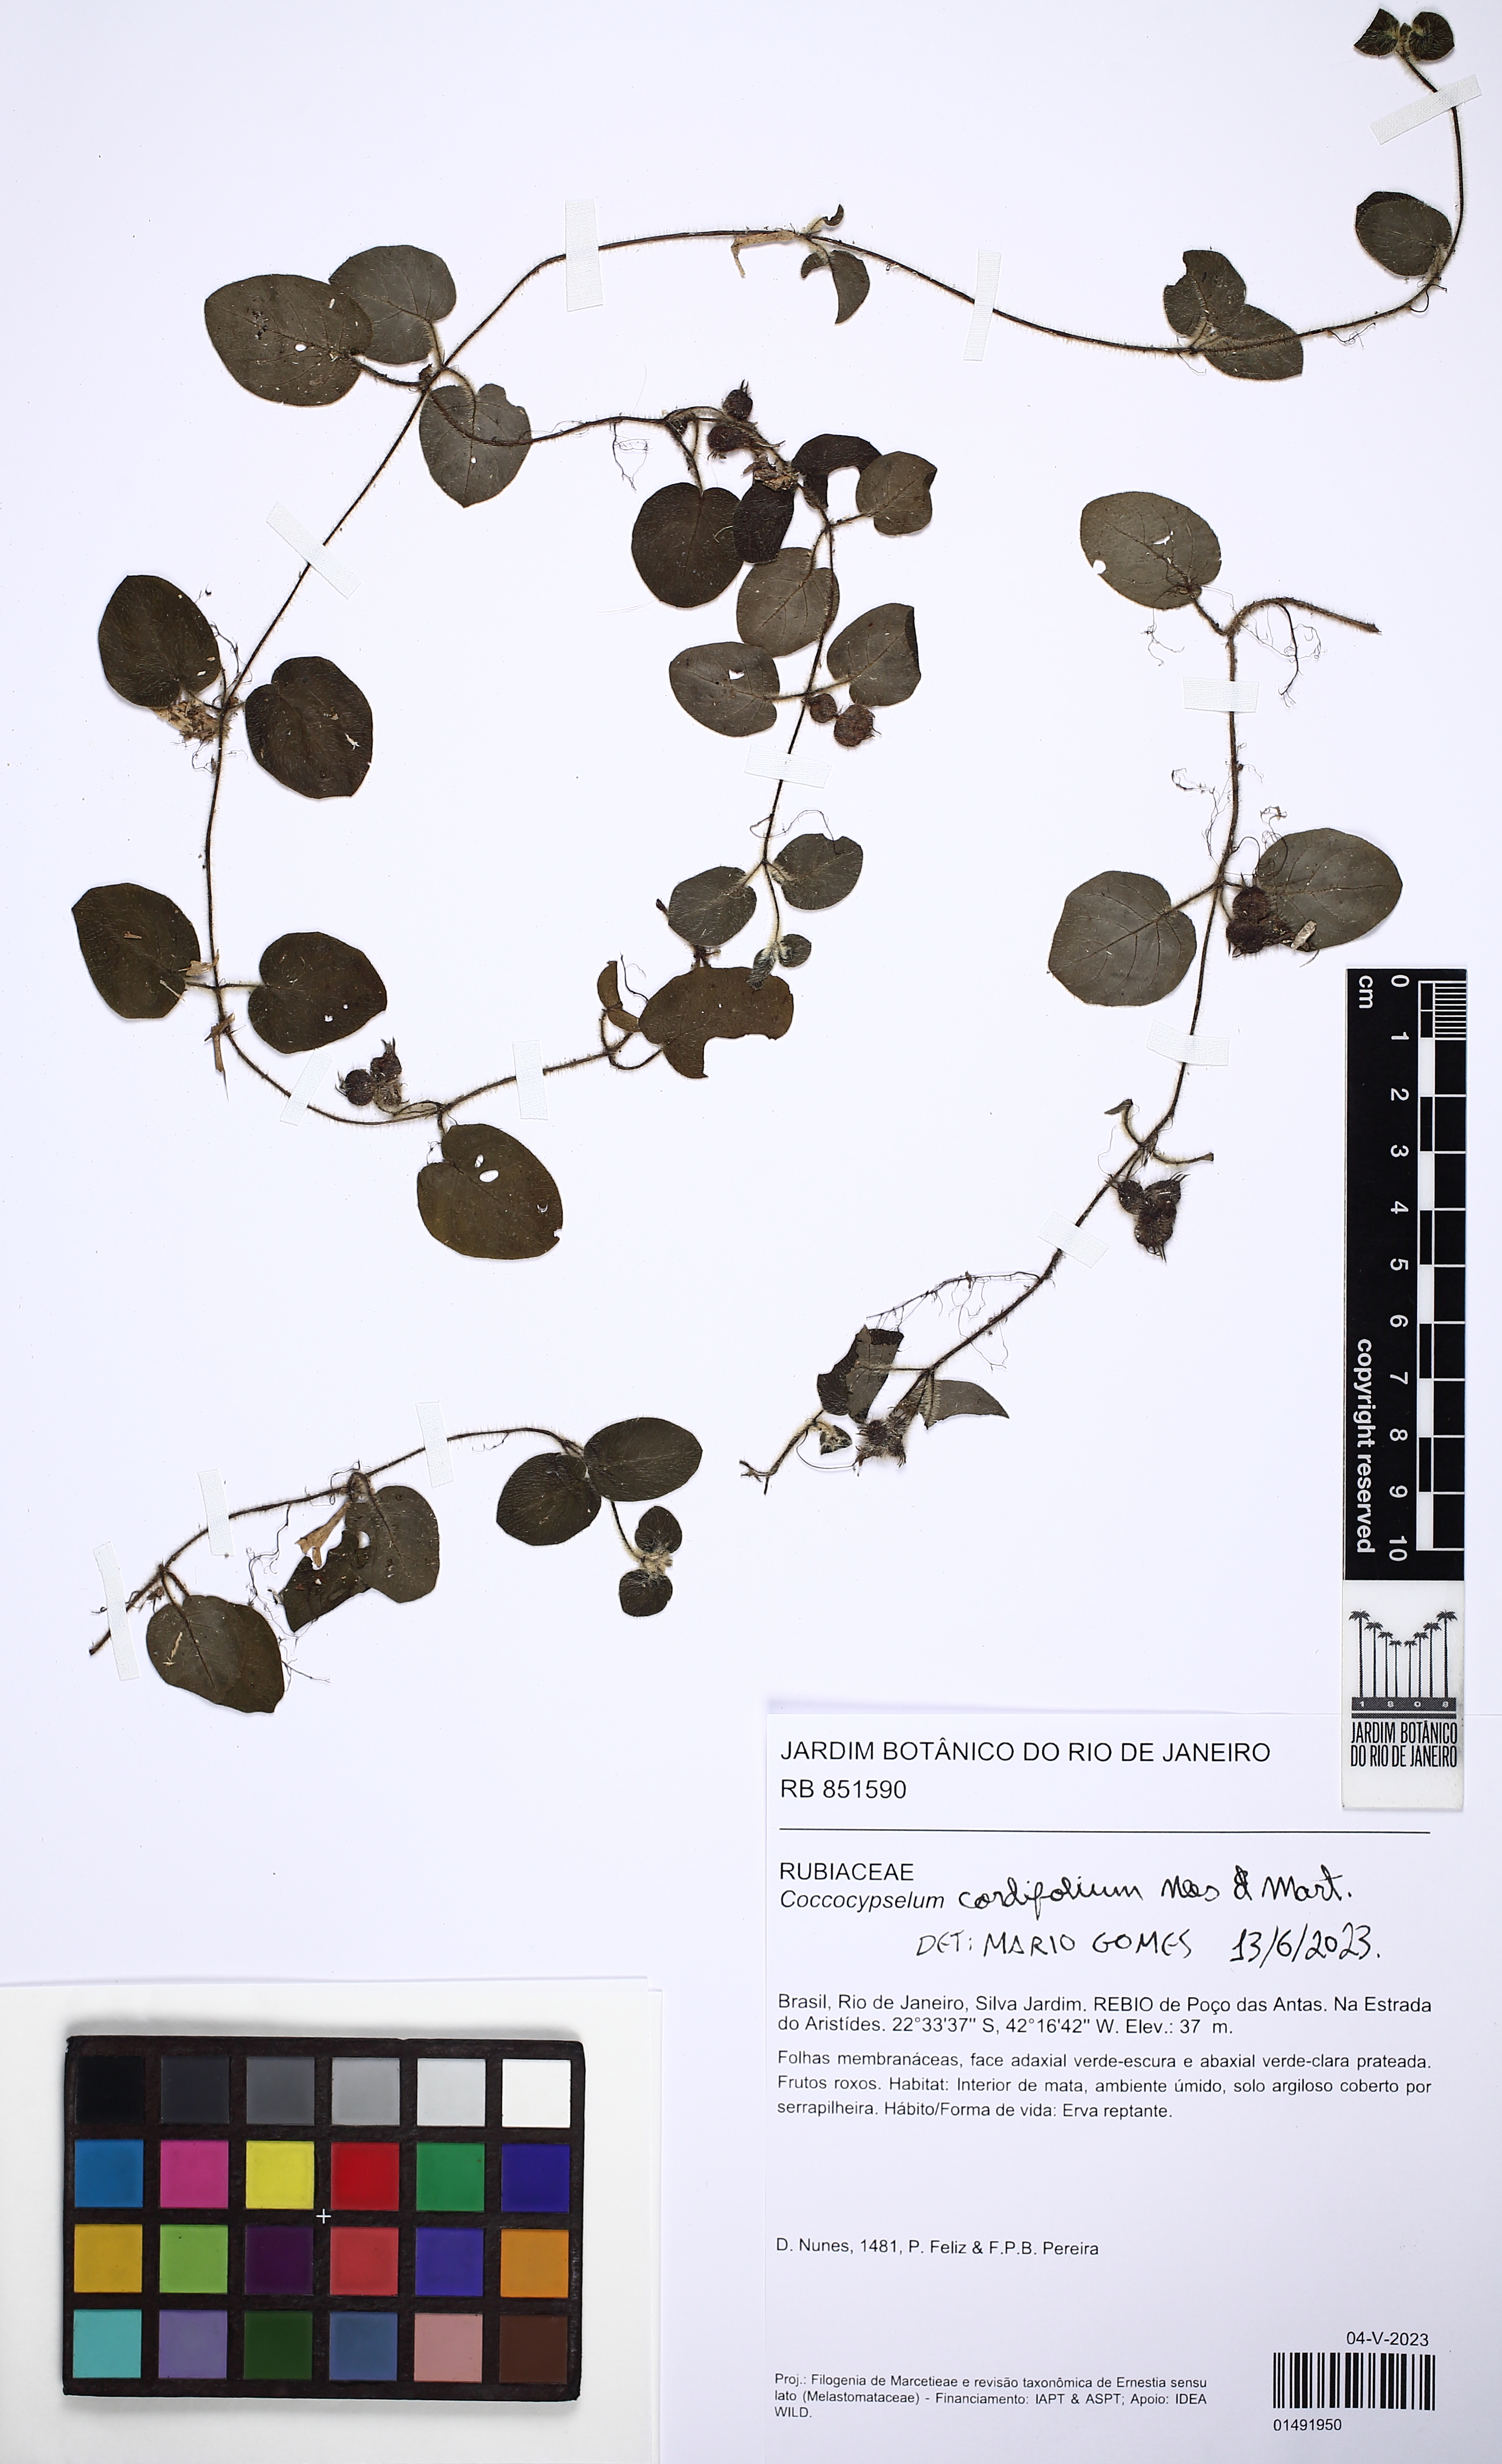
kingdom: Plantae
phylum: Tracheophyta
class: Magnoliopsida
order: Gentianales
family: Rubiaceae
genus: Coccocypselum
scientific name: Coccocypselum cordifolium
